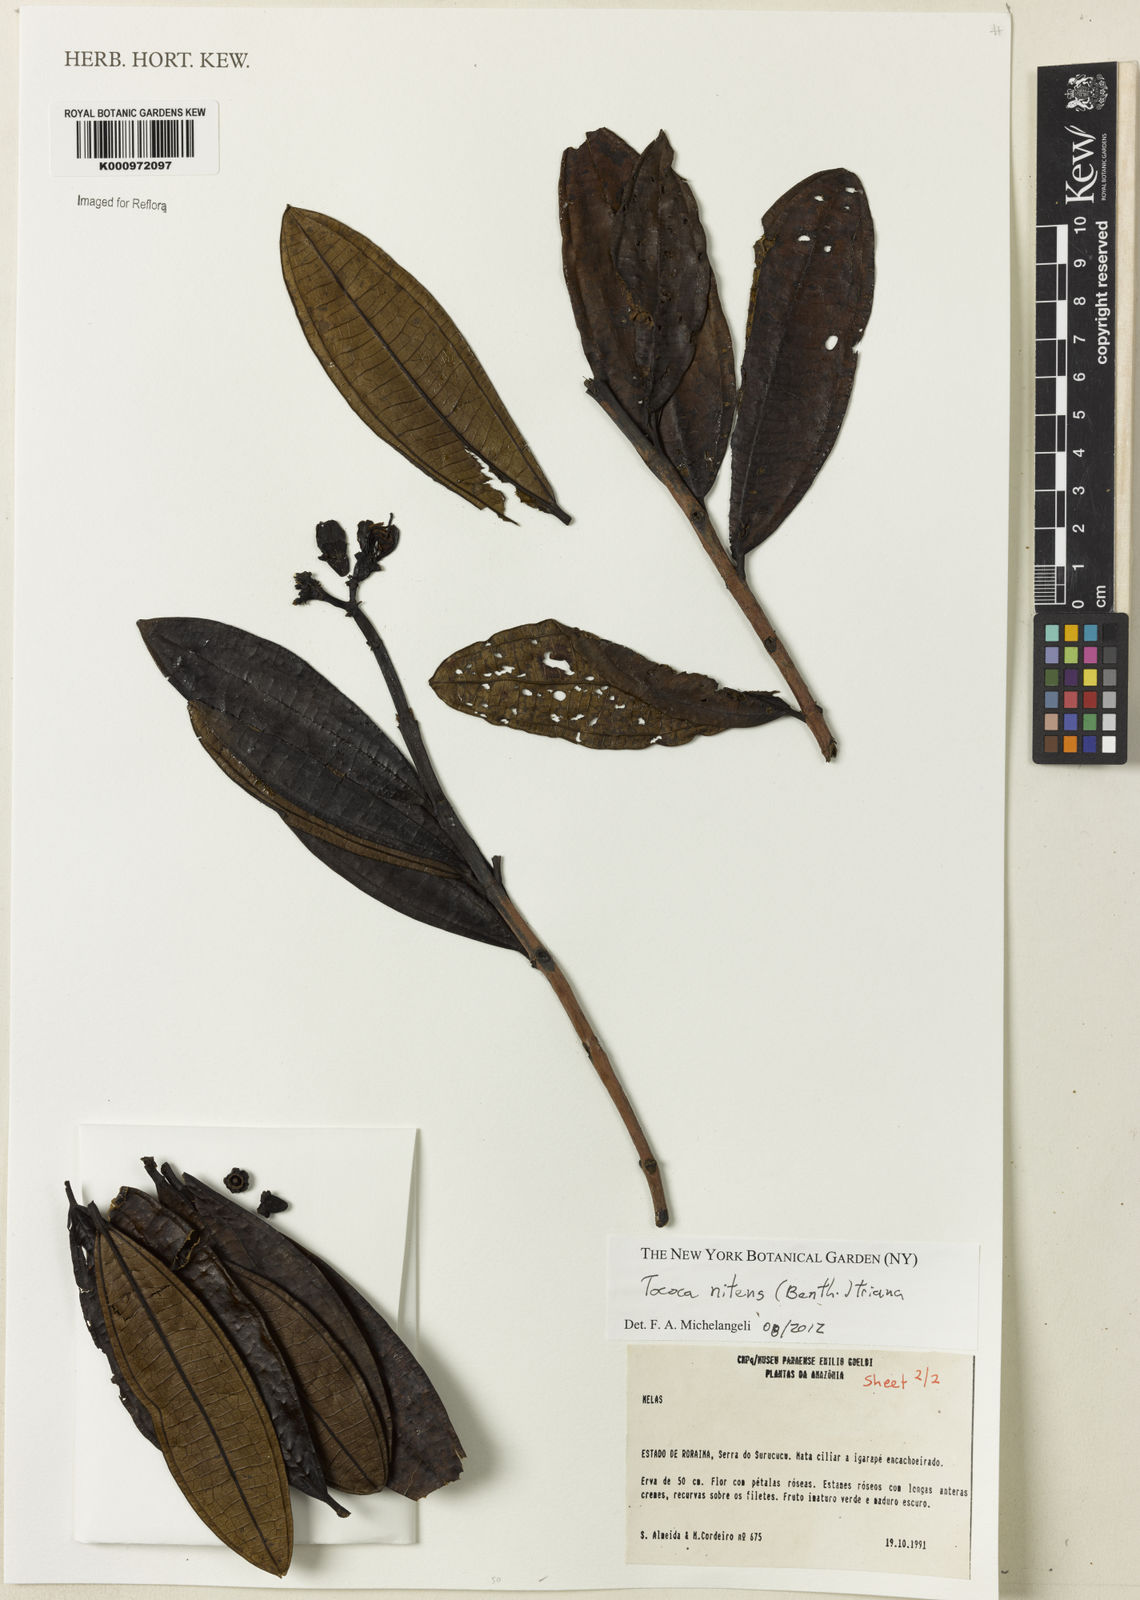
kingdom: Plantae
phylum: Tracheophyta
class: Magnoliopsida
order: Myrtales
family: Melastomataceae
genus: Miconia
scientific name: Miconia nitens
